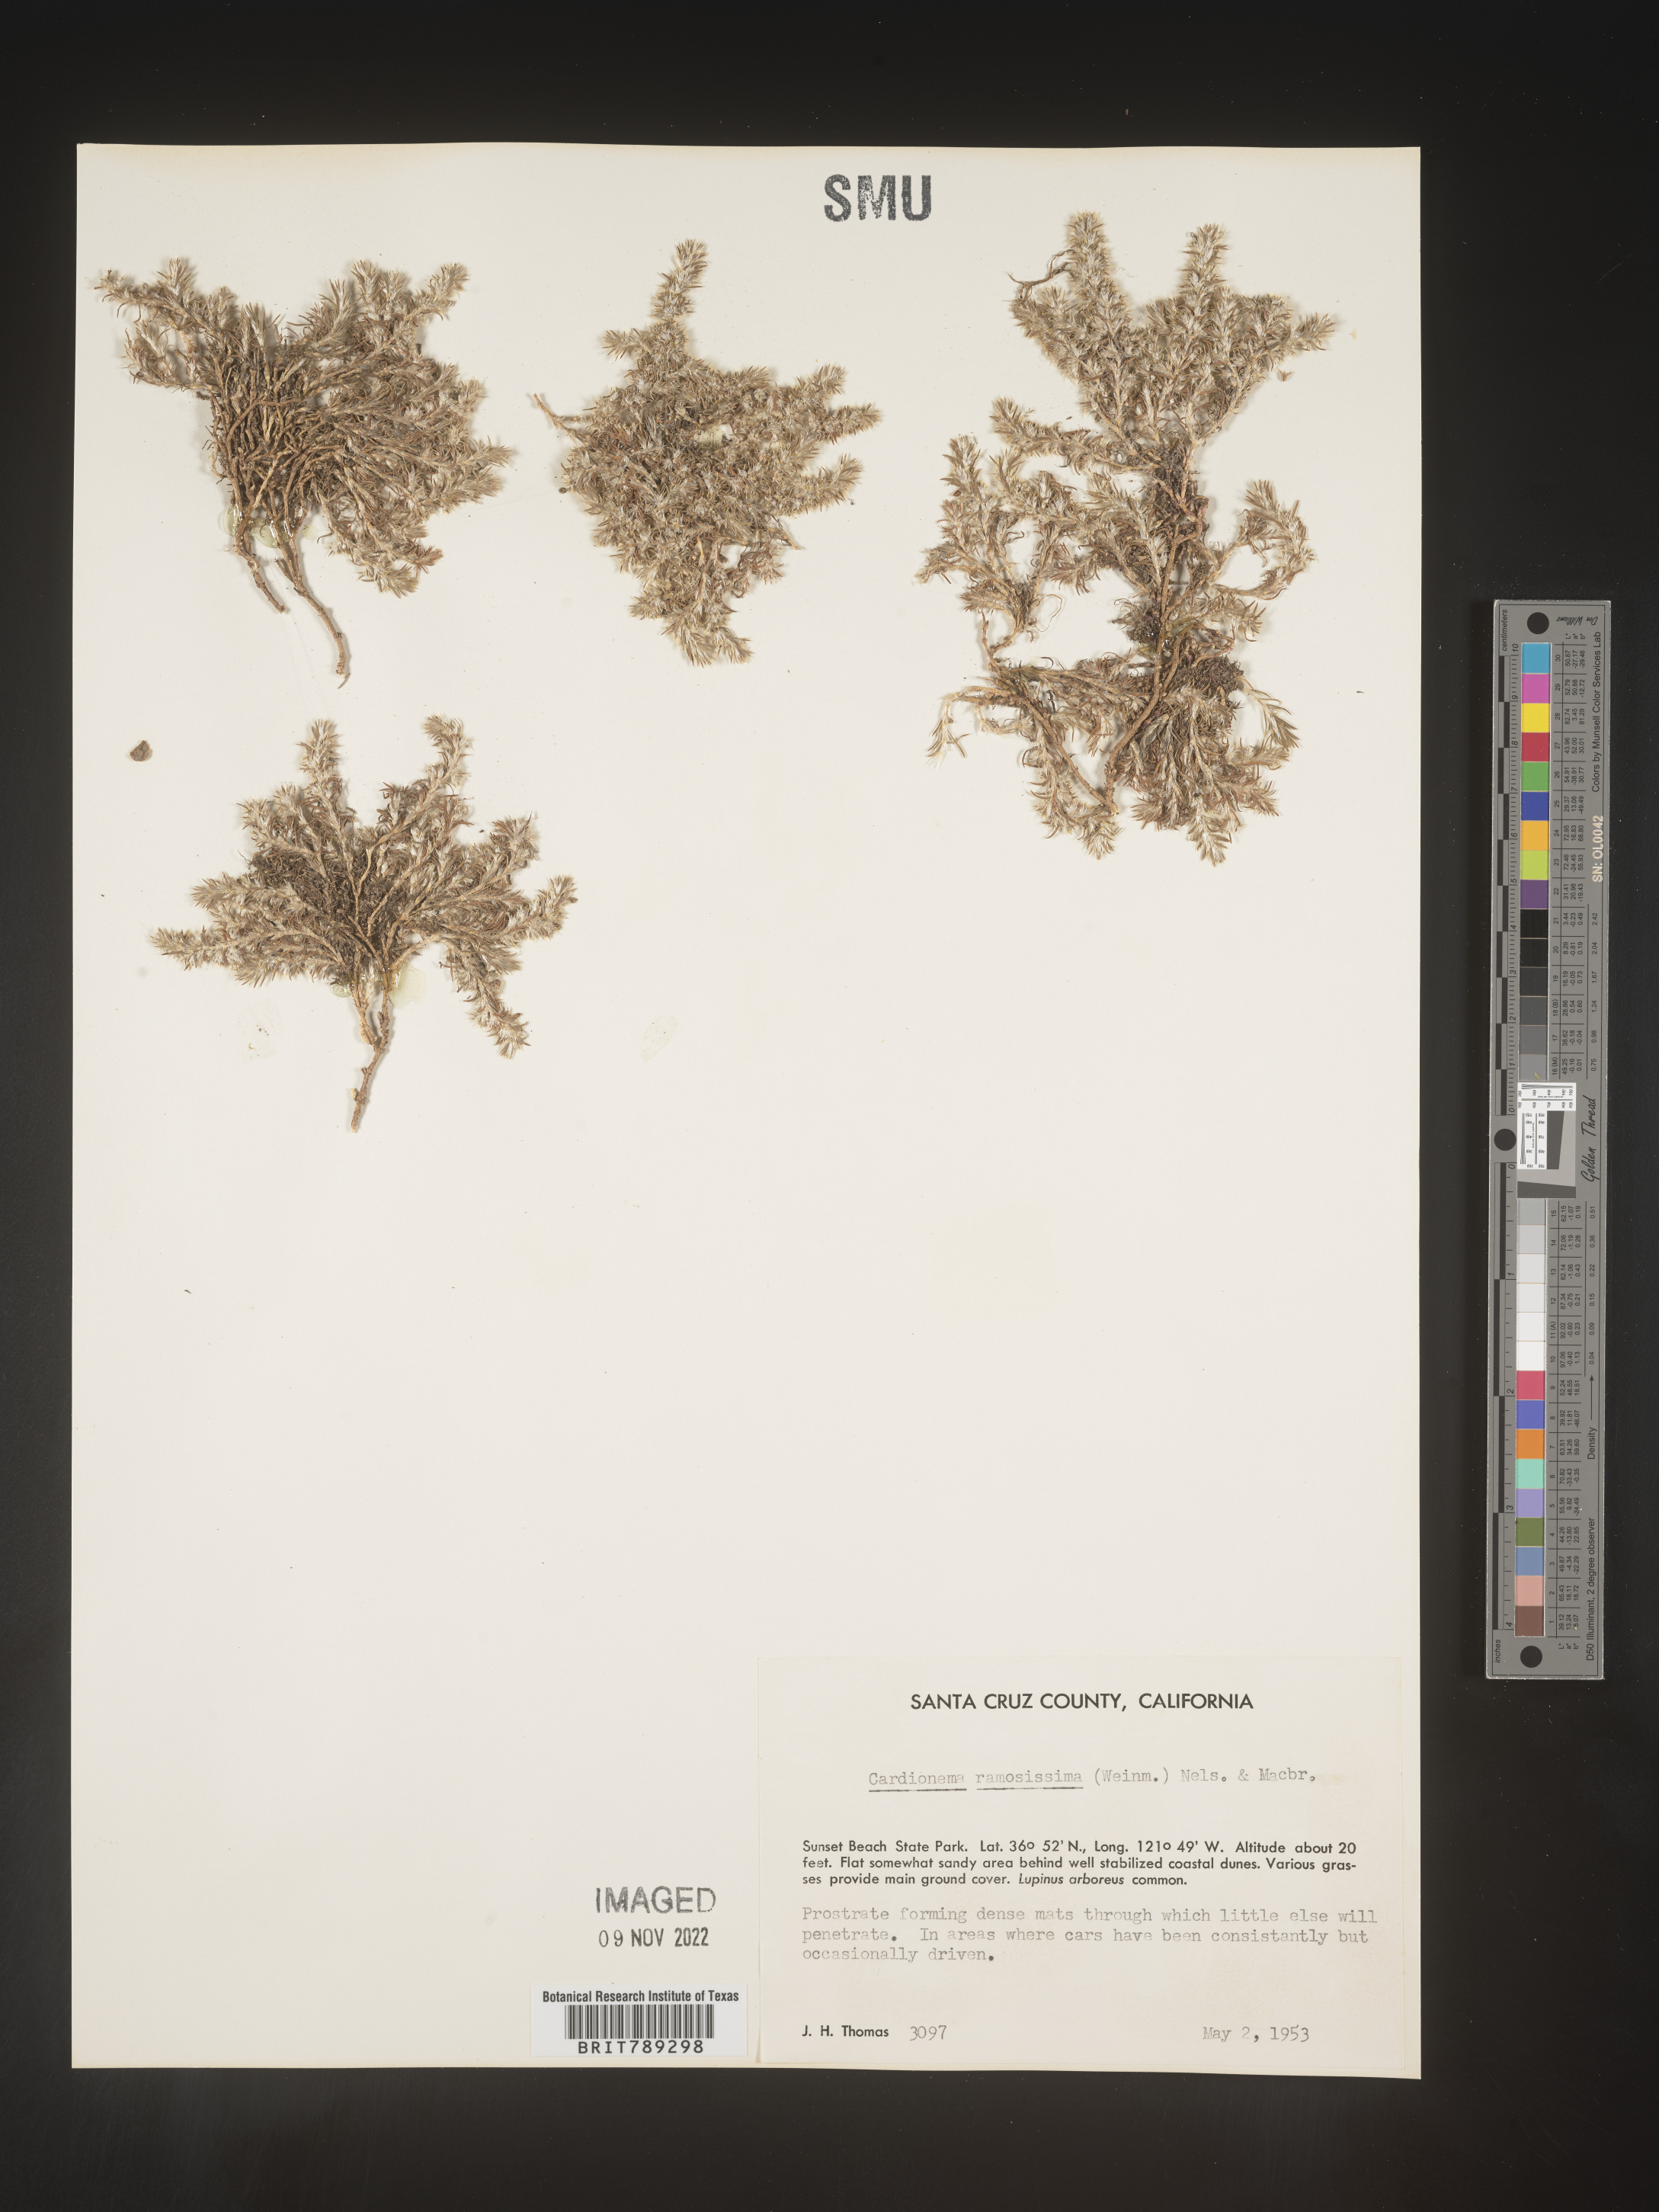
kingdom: Plantae
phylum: Tracheophyta
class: Magnoliopsida
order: Caryophyllales
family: Caryophyllaceae
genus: Cardionema
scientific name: Cardionema
